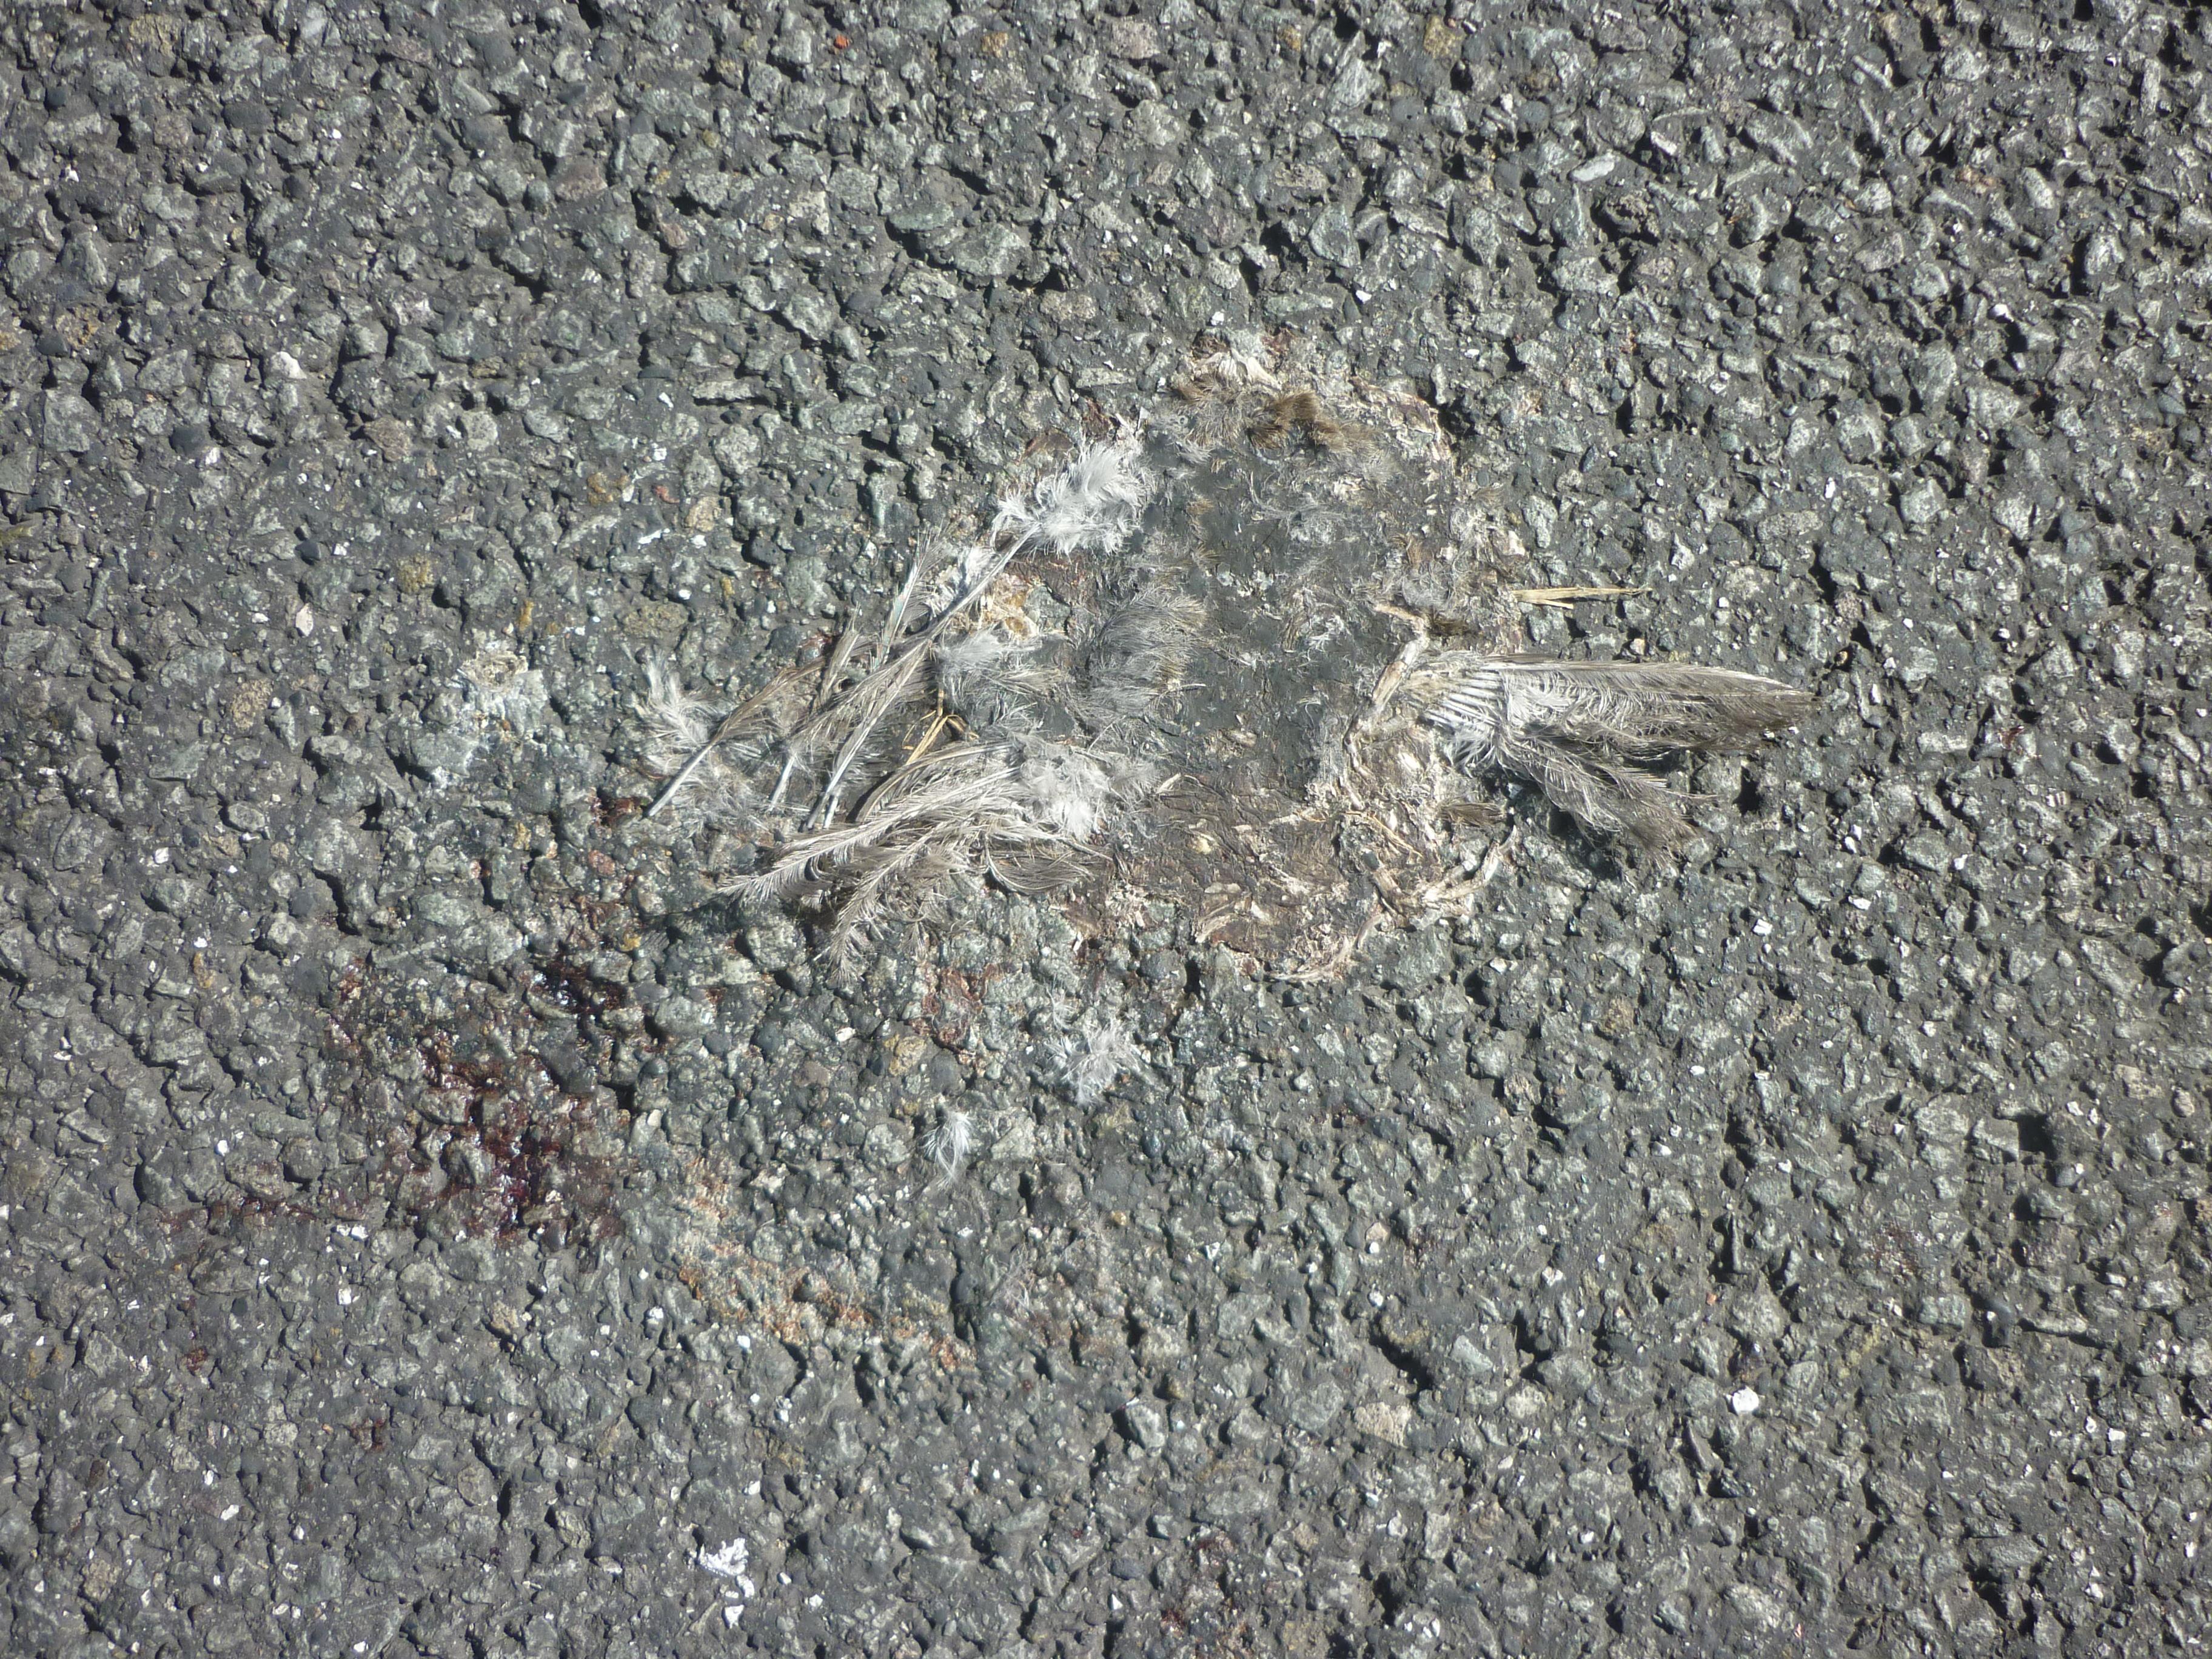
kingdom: Animalia
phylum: Chordata
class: Aves
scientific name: Aves
